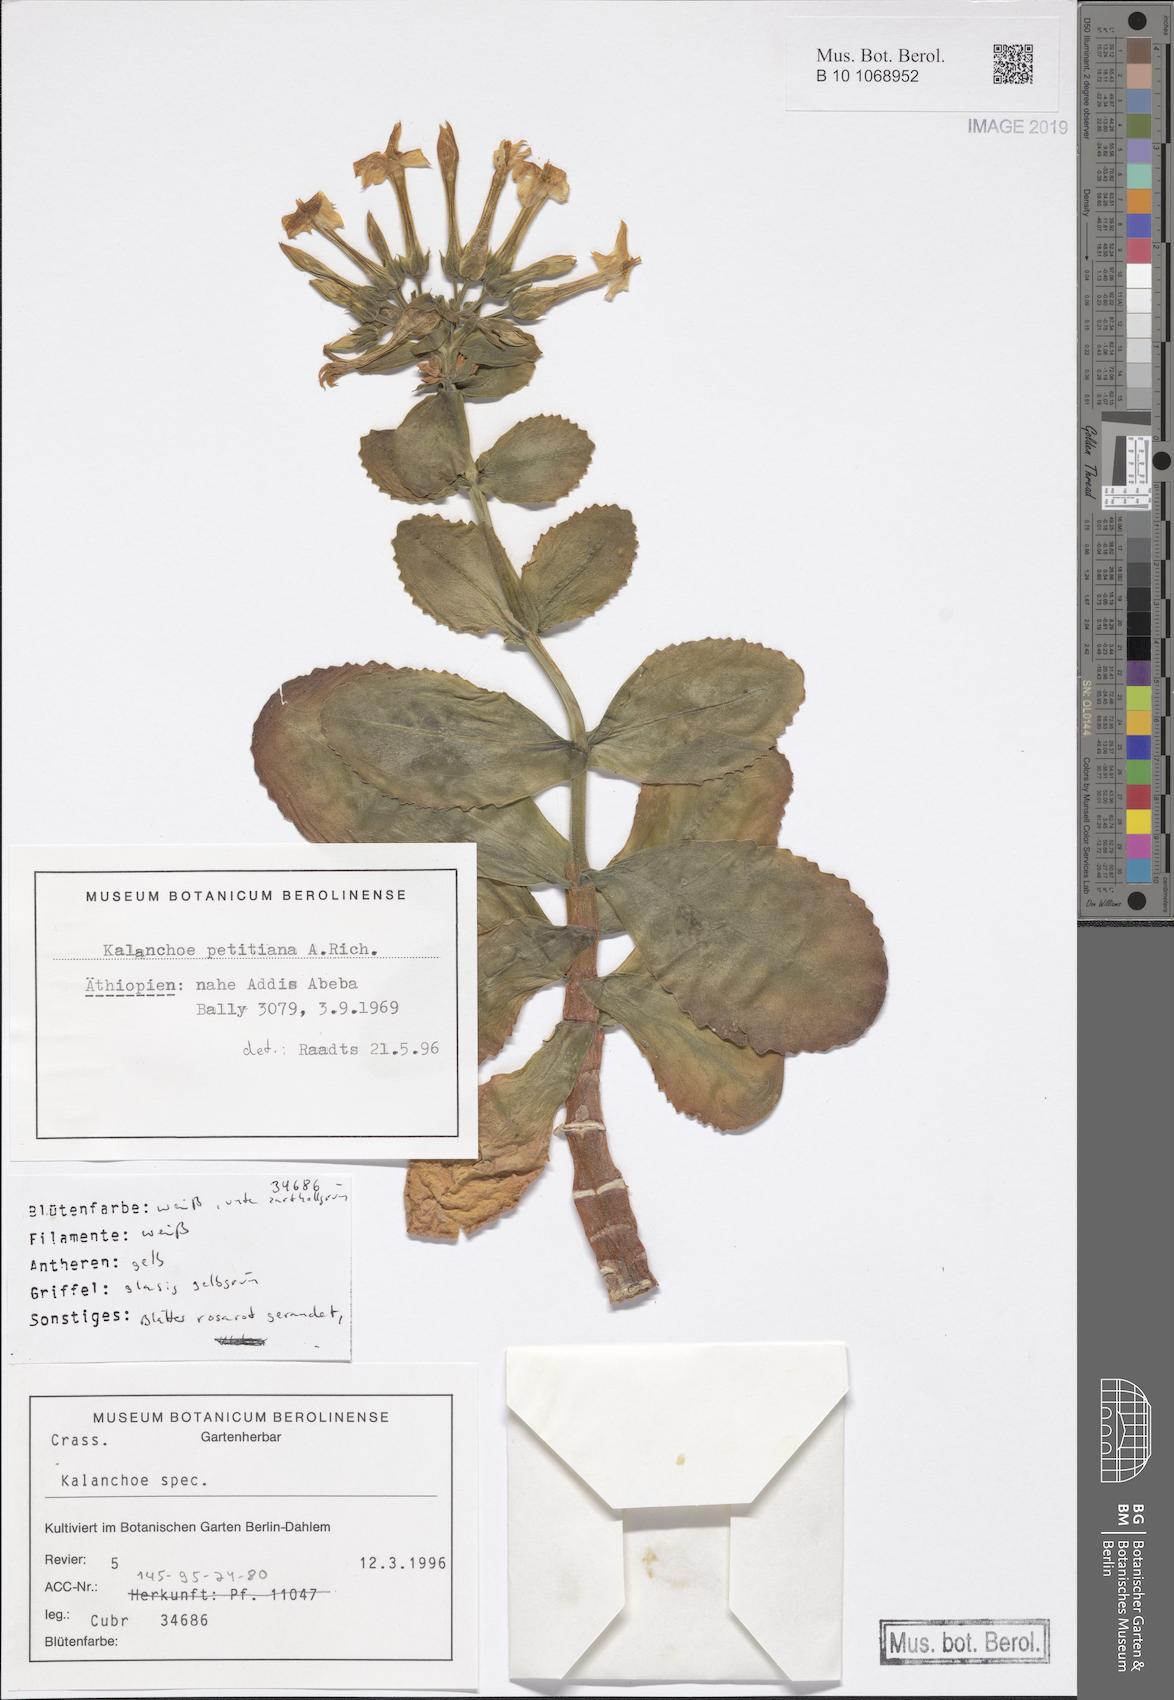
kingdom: Plantae
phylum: Tracheophyta
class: Magnoliopsida
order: Saxifragales
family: Crassulaceae
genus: Kalanchoe
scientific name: Kalanchoe latisepala
